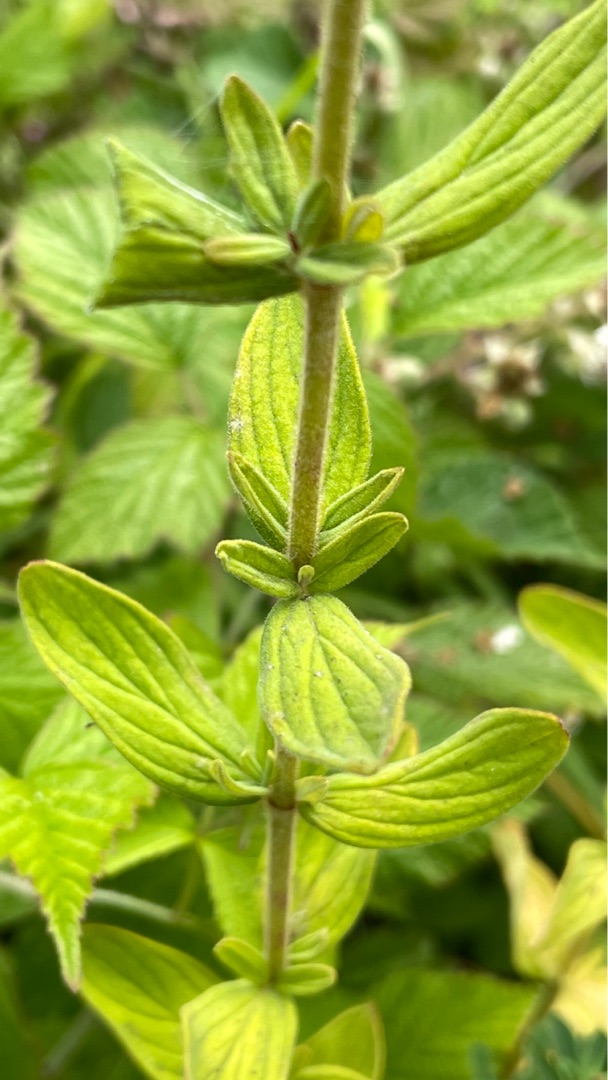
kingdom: Plantae
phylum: Tracheophyta
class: Magnoliopsida
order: Malpighiales
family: Hypericaceae
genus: Hypericum
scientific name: Hypericum hirsutum
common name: Lådden perikon
